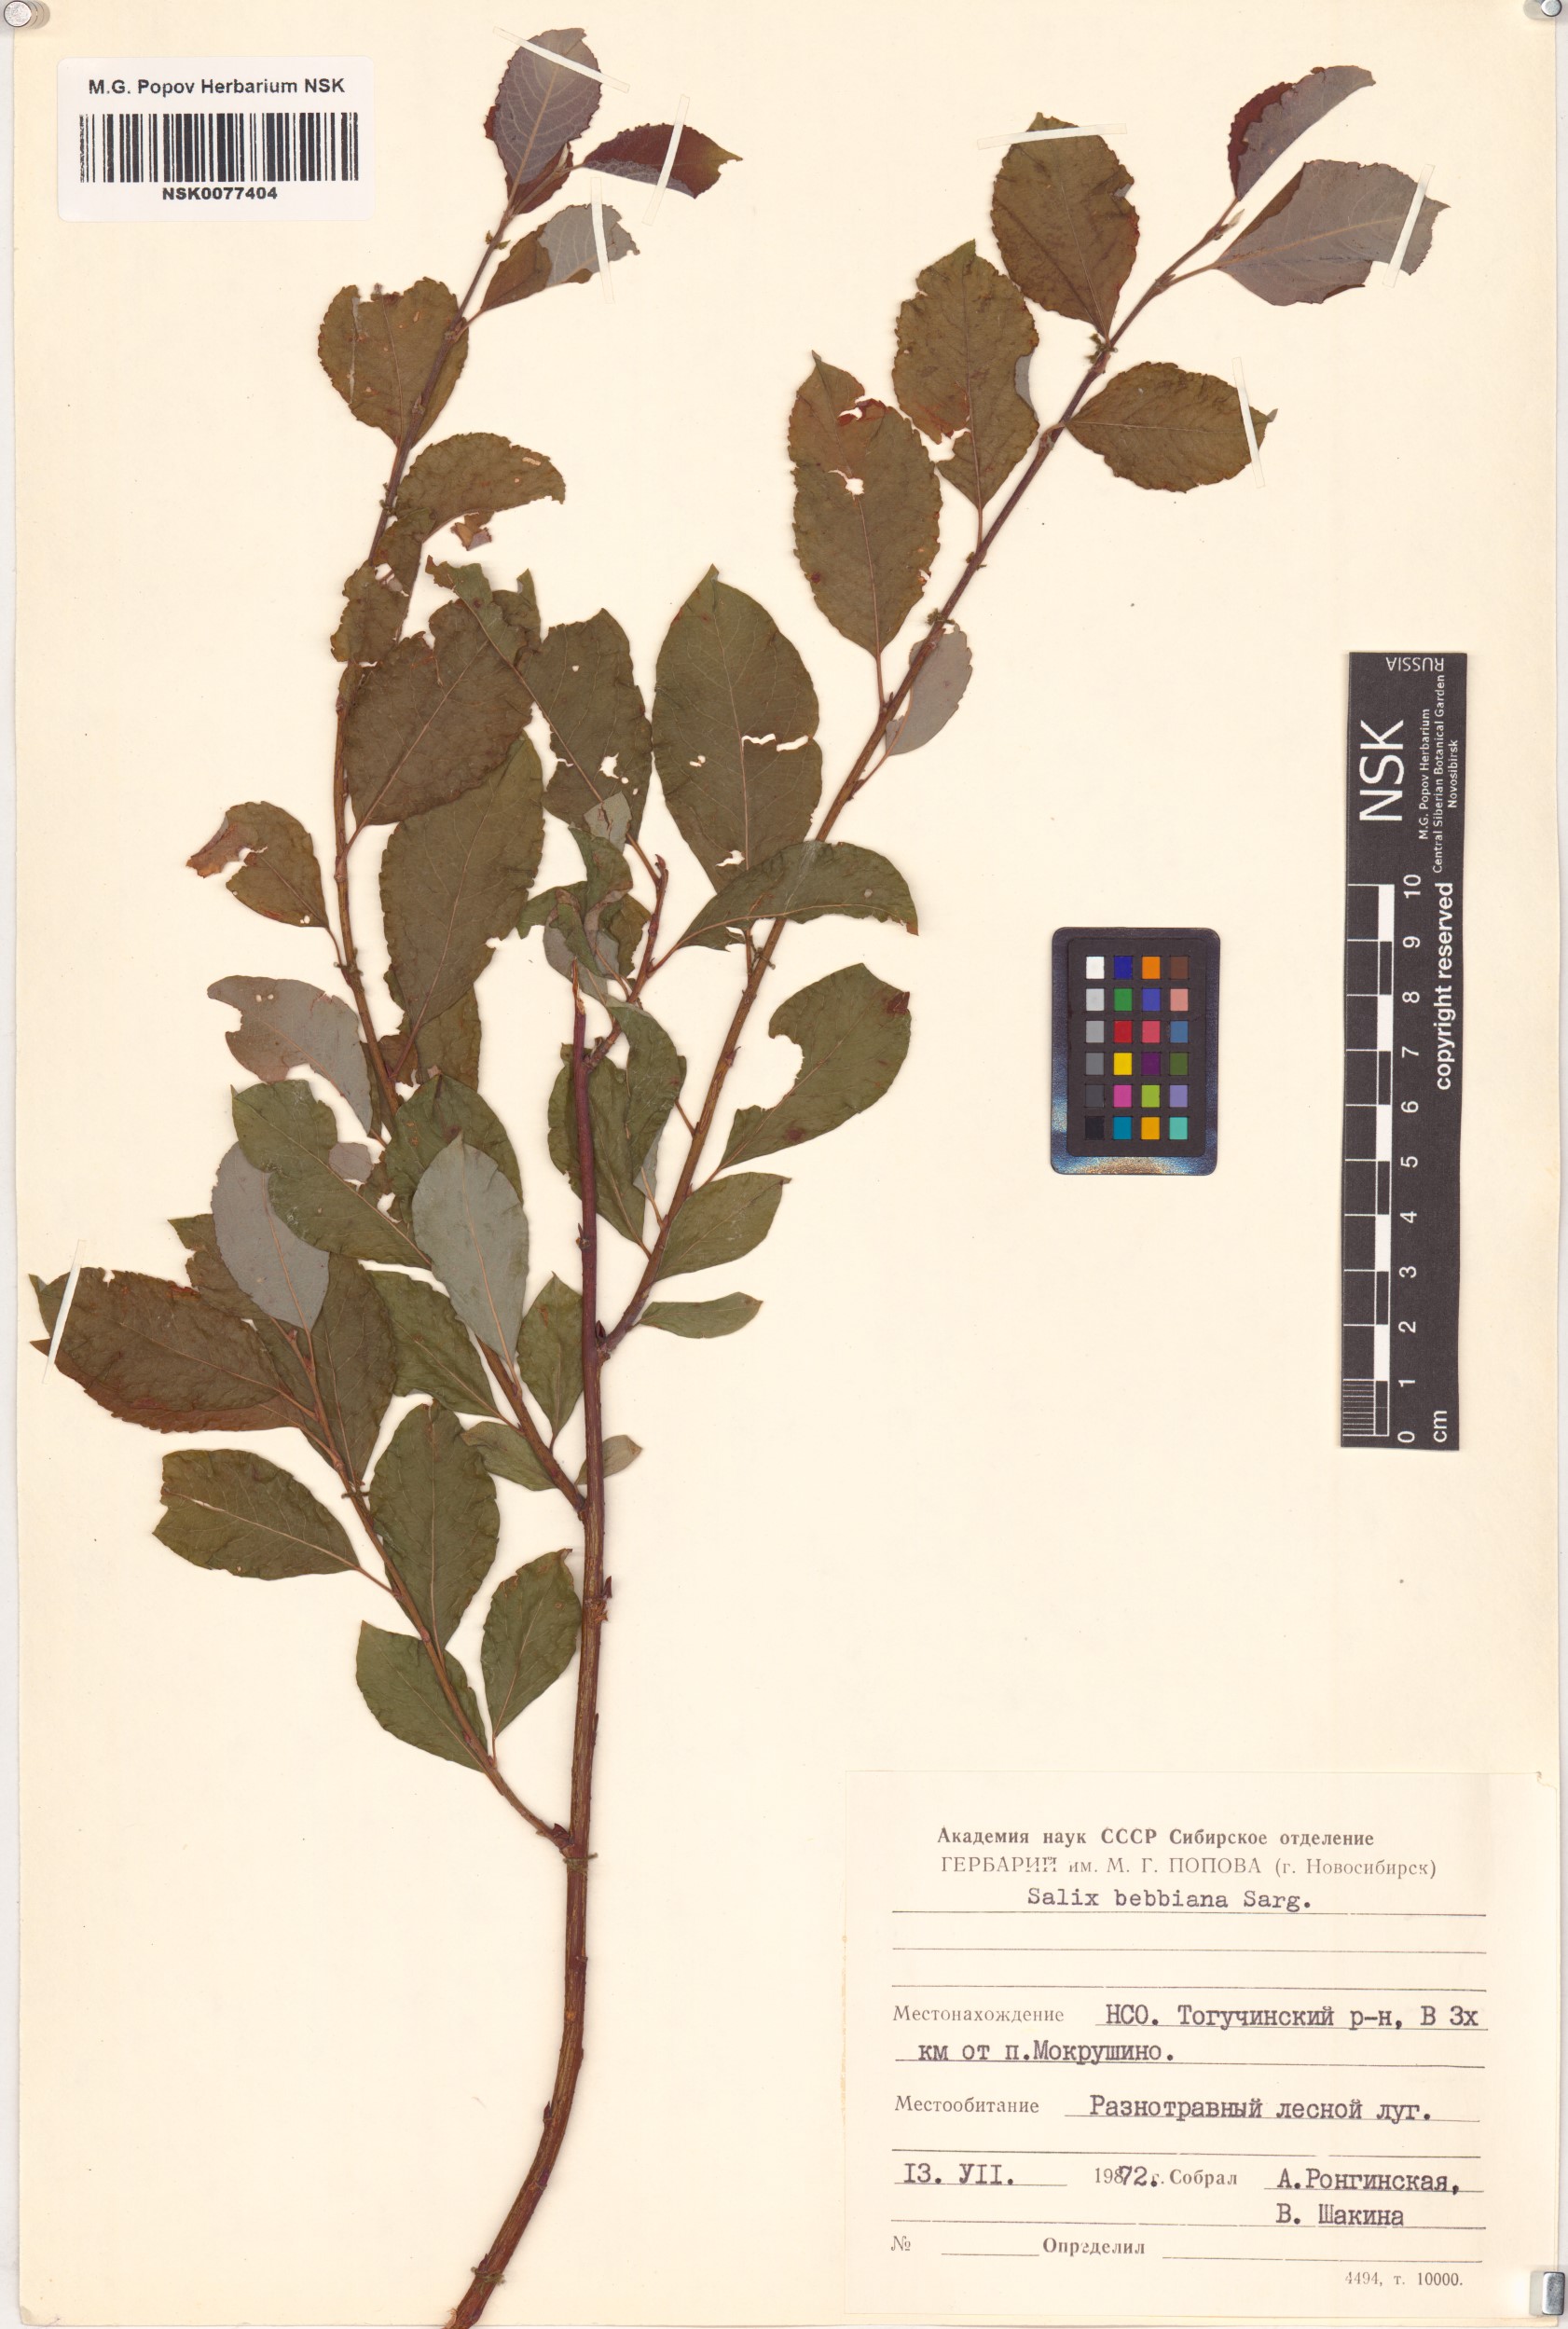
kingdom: Plantae
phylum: Tracheophyta
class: Magnoliopsida
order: Malpighiales
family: Salicaceae
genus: Salix
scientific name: Salix bebbiana
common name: Bebb's willow
